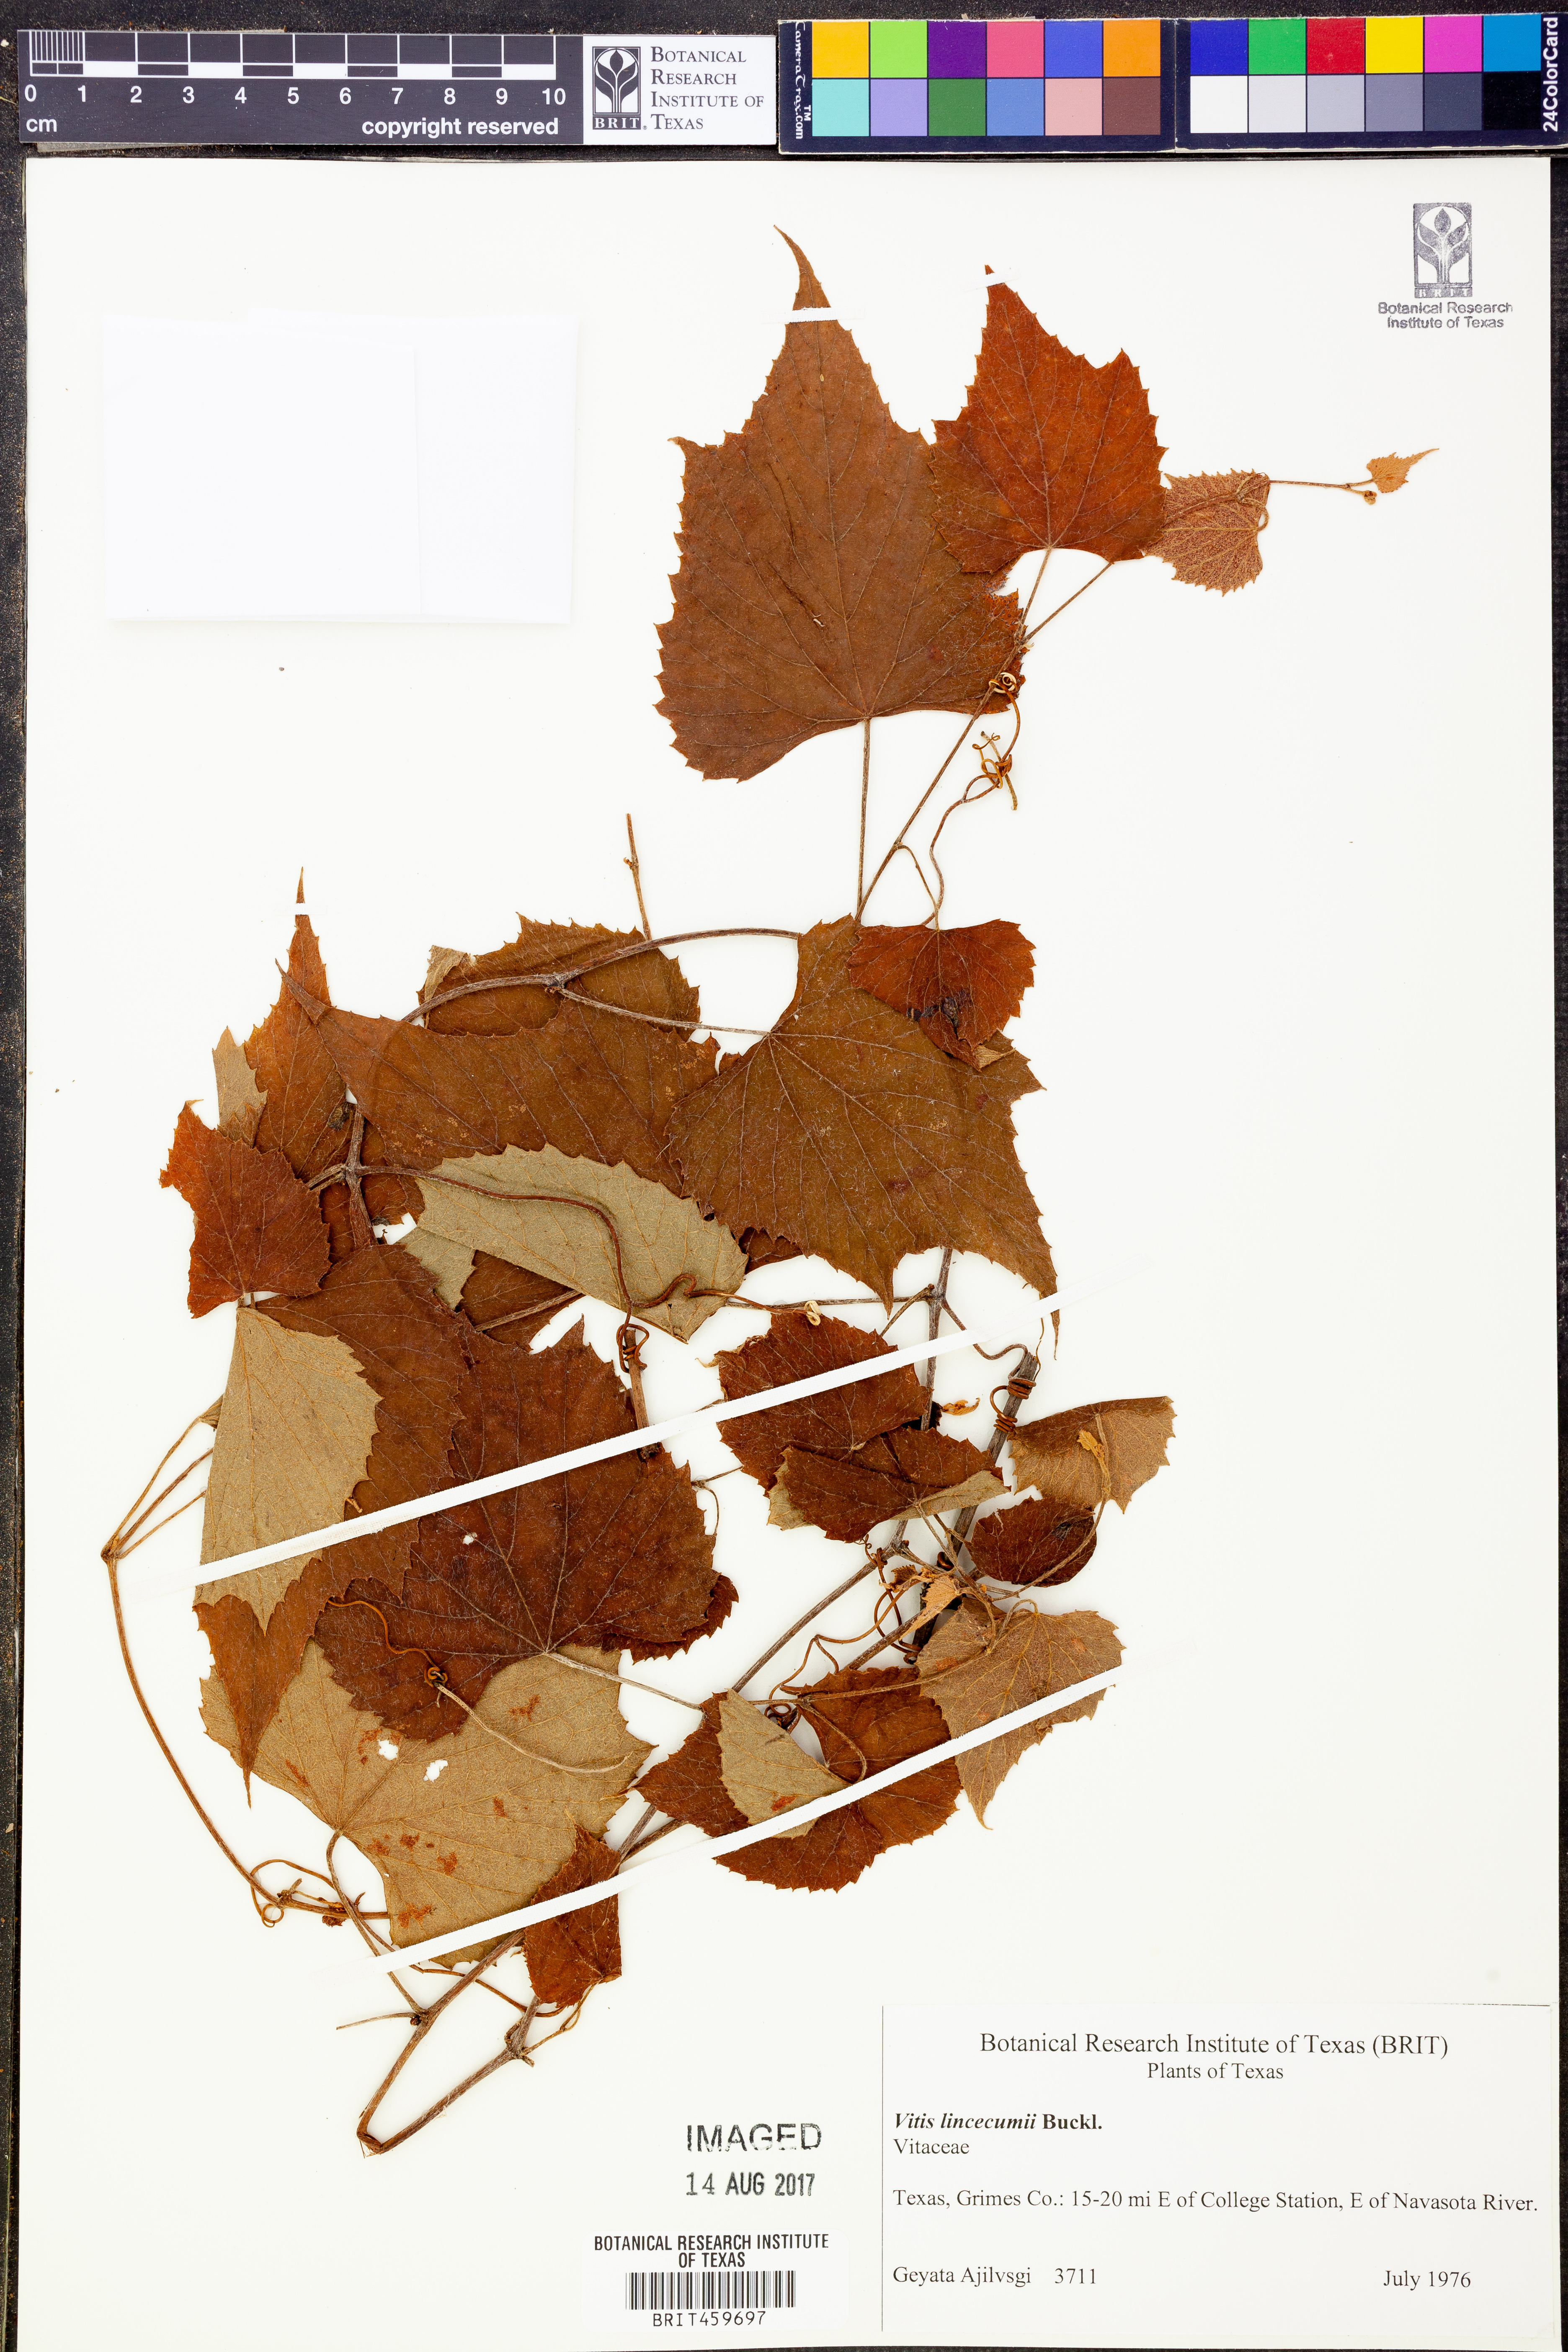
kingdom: Plantae
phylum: Tracheophyta
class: Magnoliopsida
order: Vitales
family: Vitaceae
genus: Vitis
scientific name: Vitis aestivalis
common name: Pigeon grape
